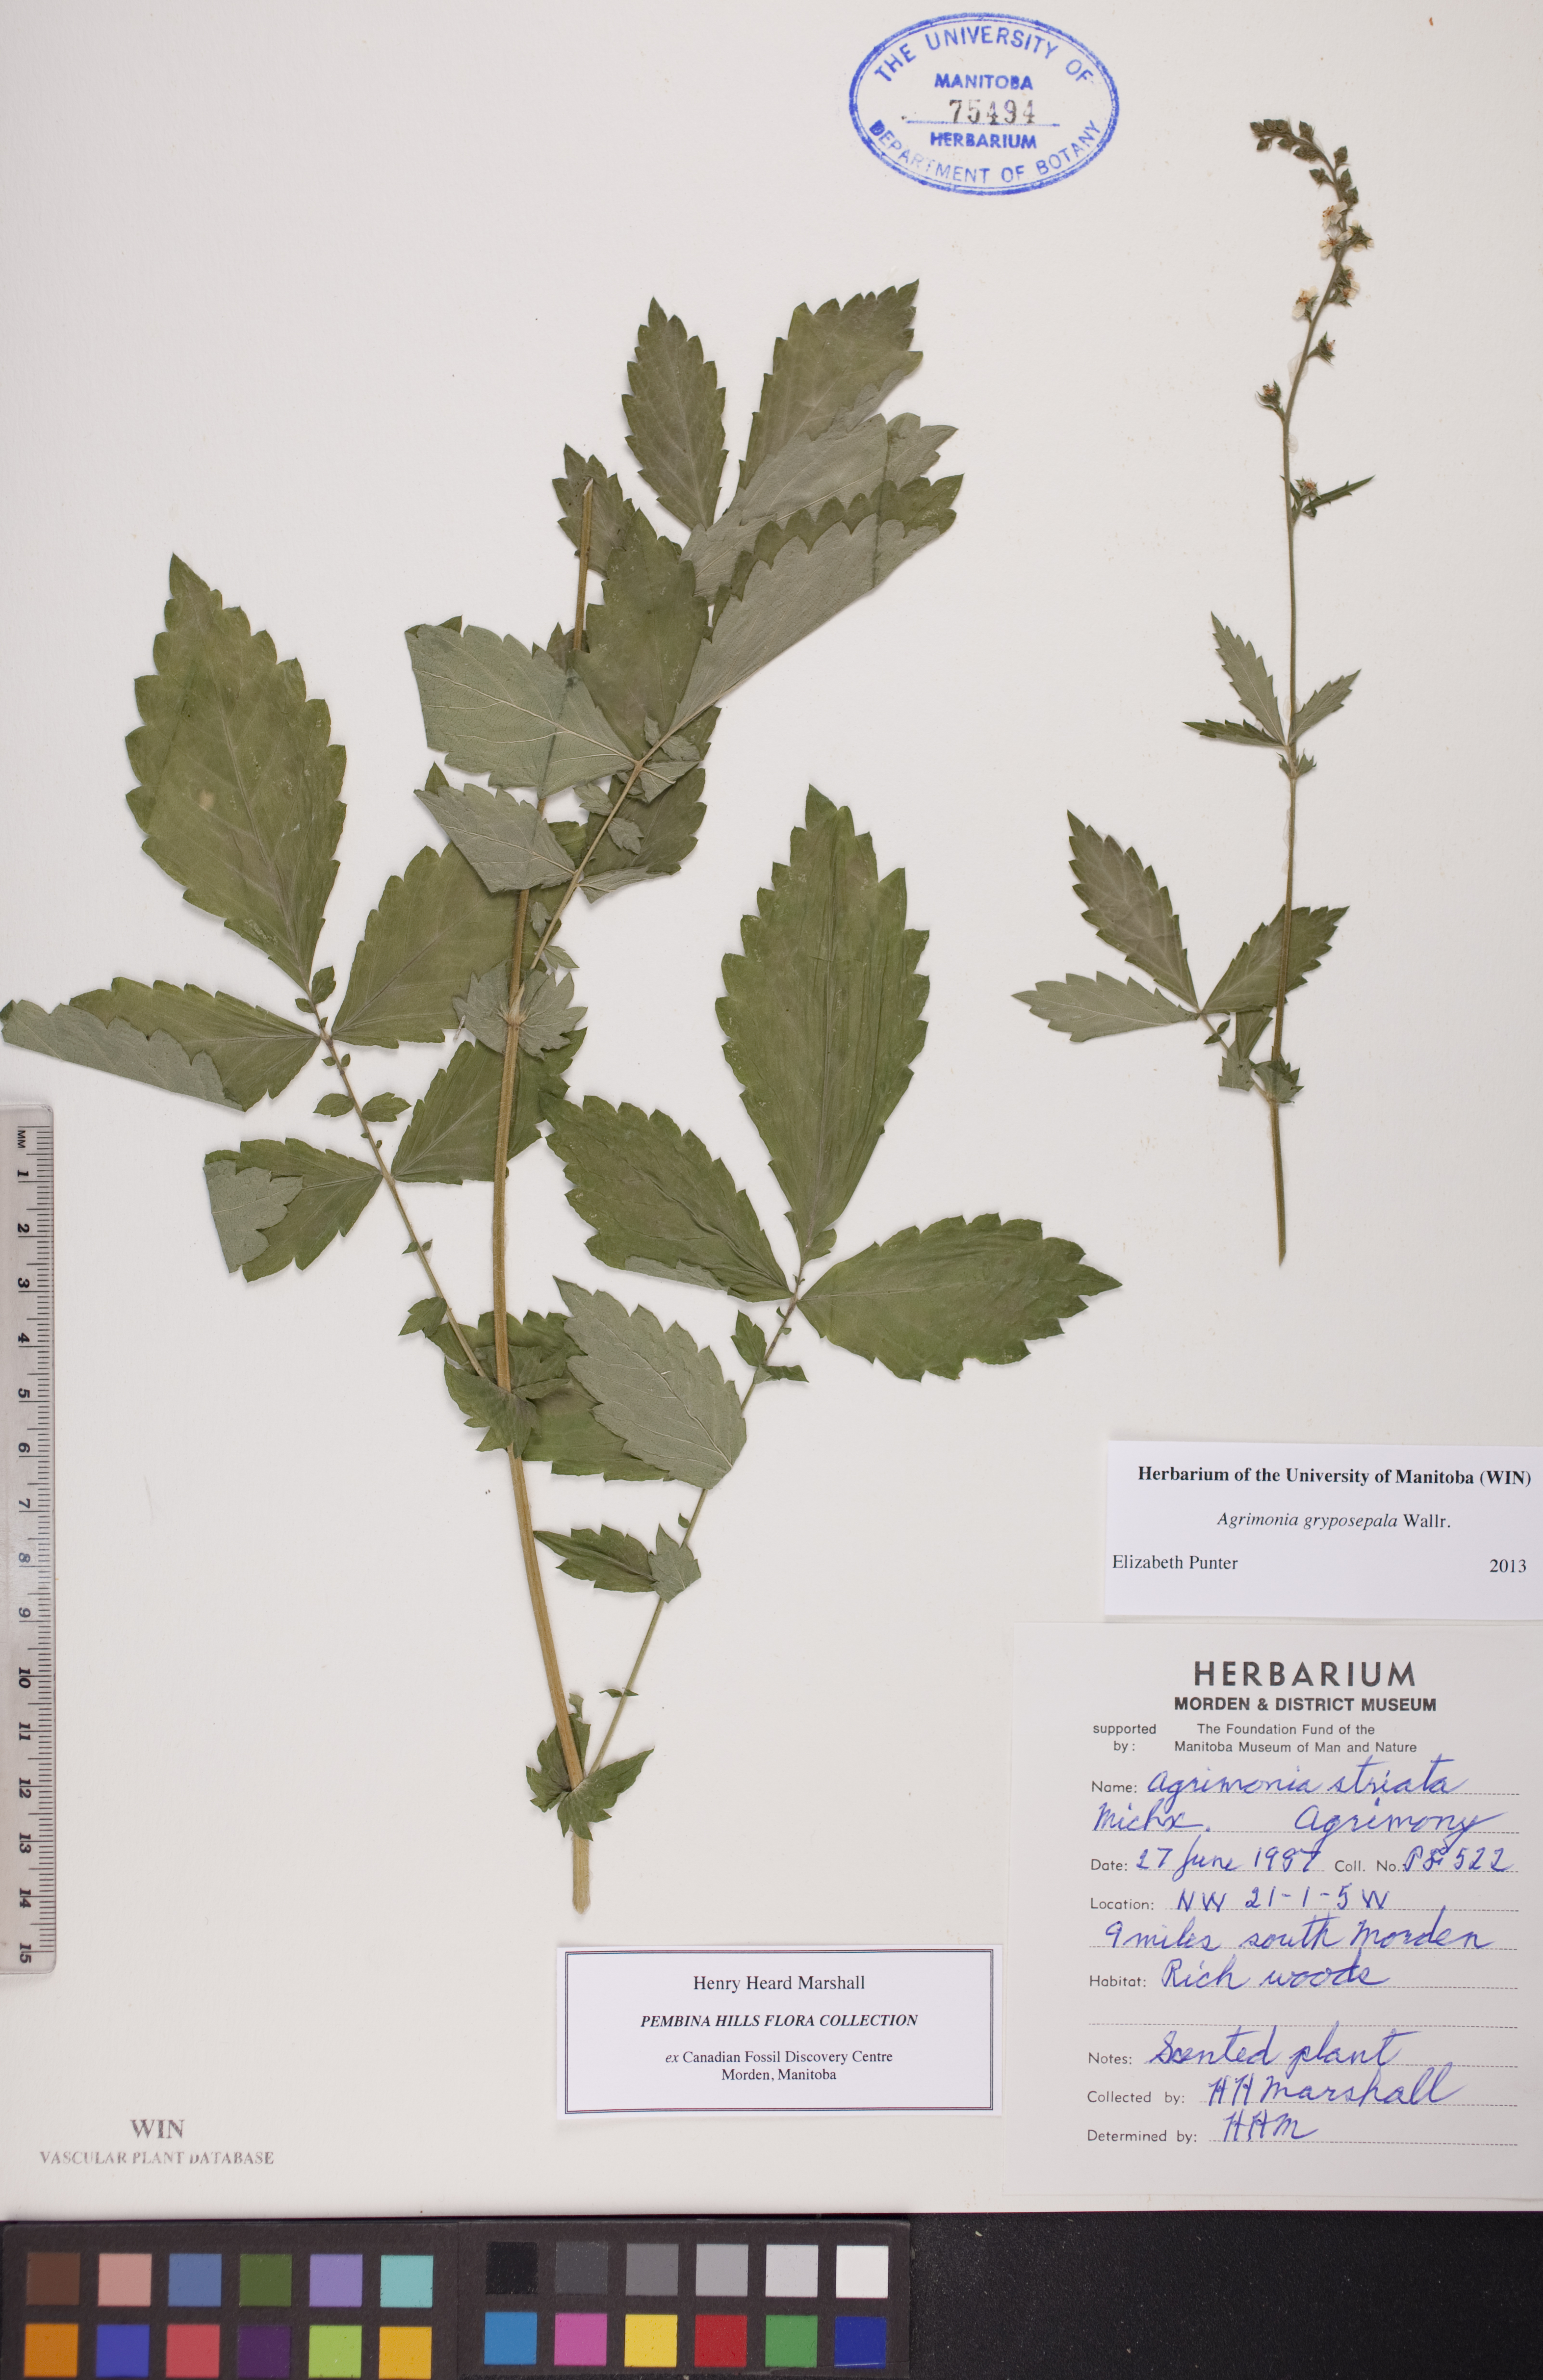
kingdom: Plantae
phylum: Tracheophyta
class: Magnoliopsida
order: Rosales
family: Rosaceae
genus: Agrimonia
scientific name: Agrimonia gryposepala
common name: Common agrimony
